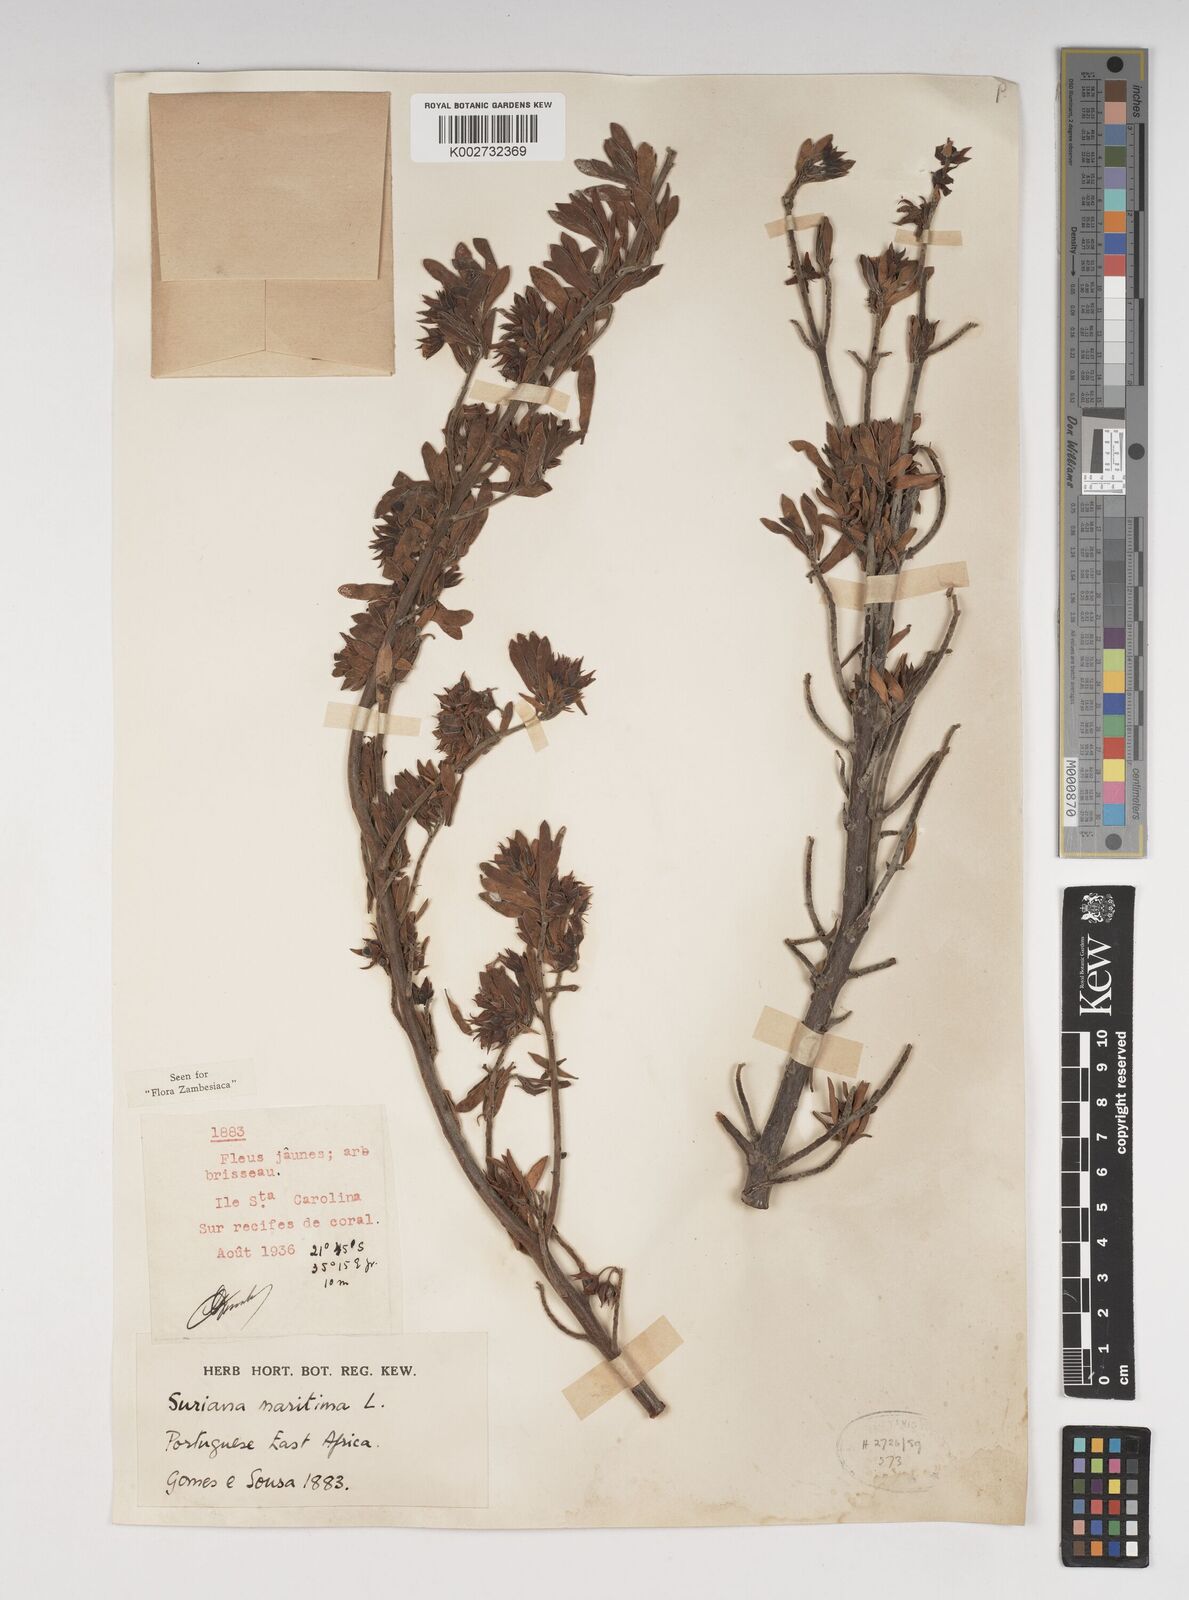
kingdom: Plantae
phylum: Tracheophyta
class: Magnoliopsida
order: Fabales
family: Surianaceae
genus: Suriana
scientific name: Suriana maritima
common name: Bay-cedar
